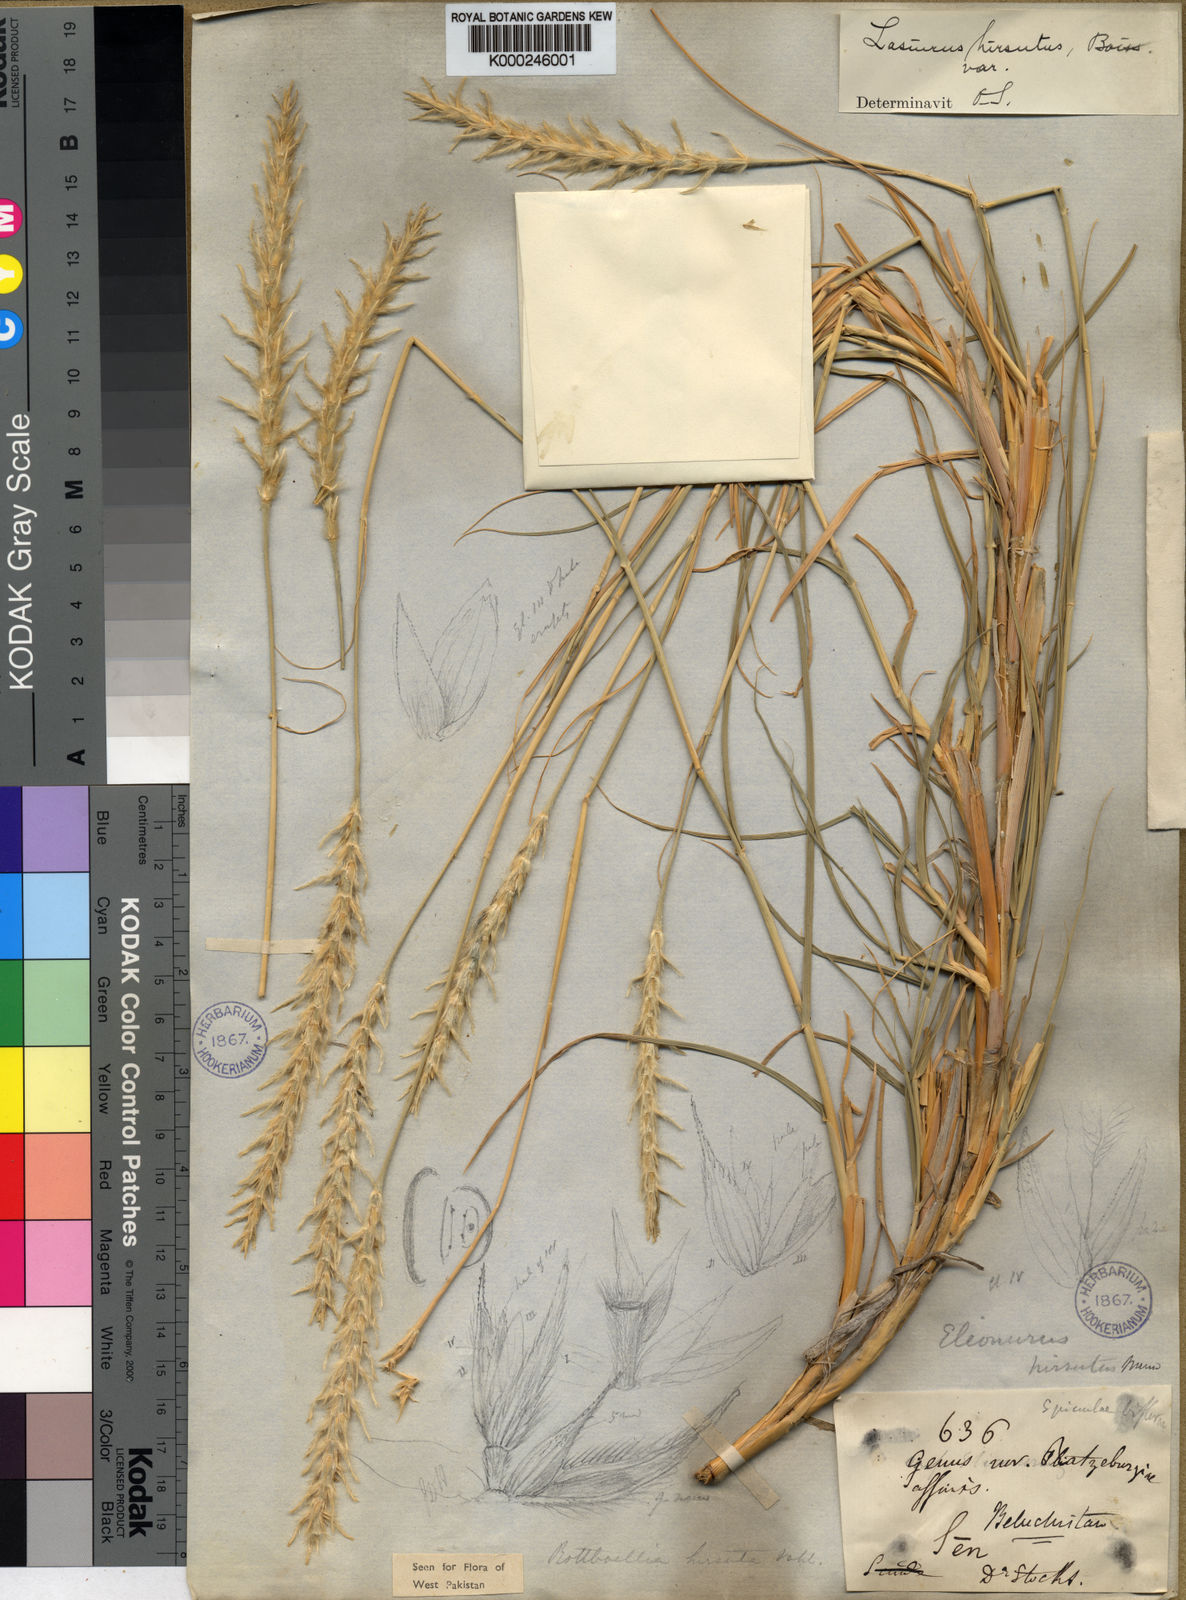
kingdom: Plantae
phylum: Tracheophyta
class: Liliopsida
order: Poales
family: Poaceae
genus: Lasiurus
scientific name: Lasiurus scindicus
